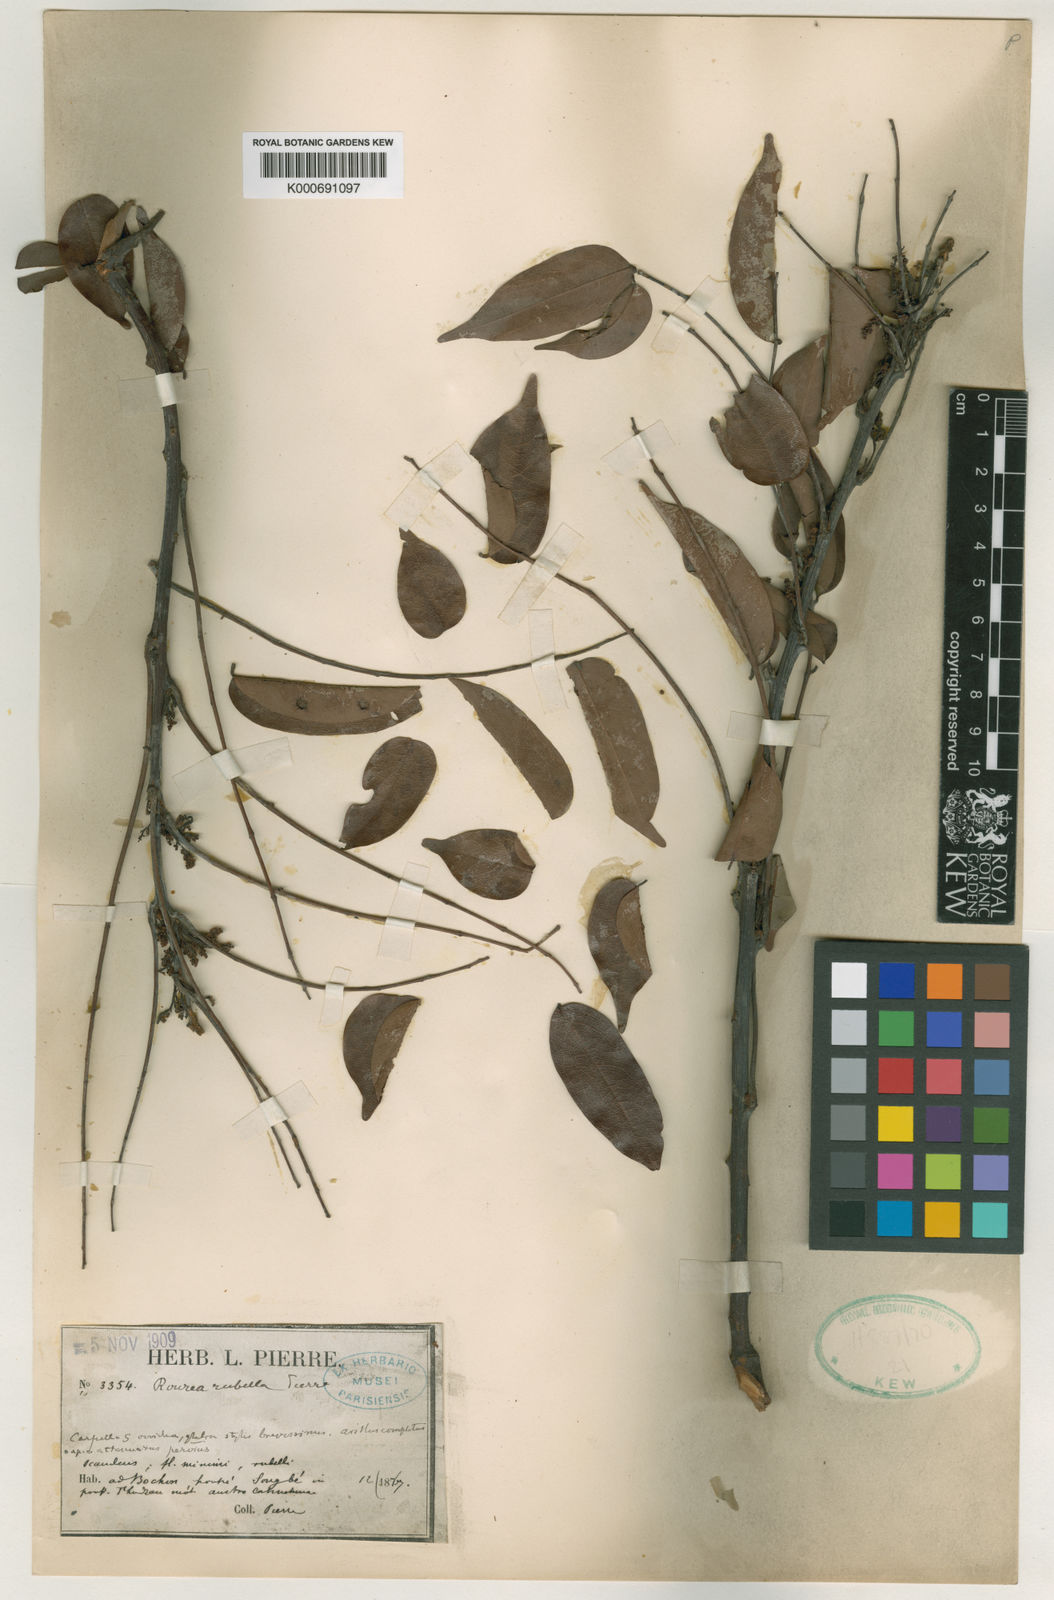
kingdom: Plantae
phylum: Tracheophyta
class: Magnoliopsida
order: Oxalidales
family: Connaraceae
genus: Rourea
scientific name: Rourea
